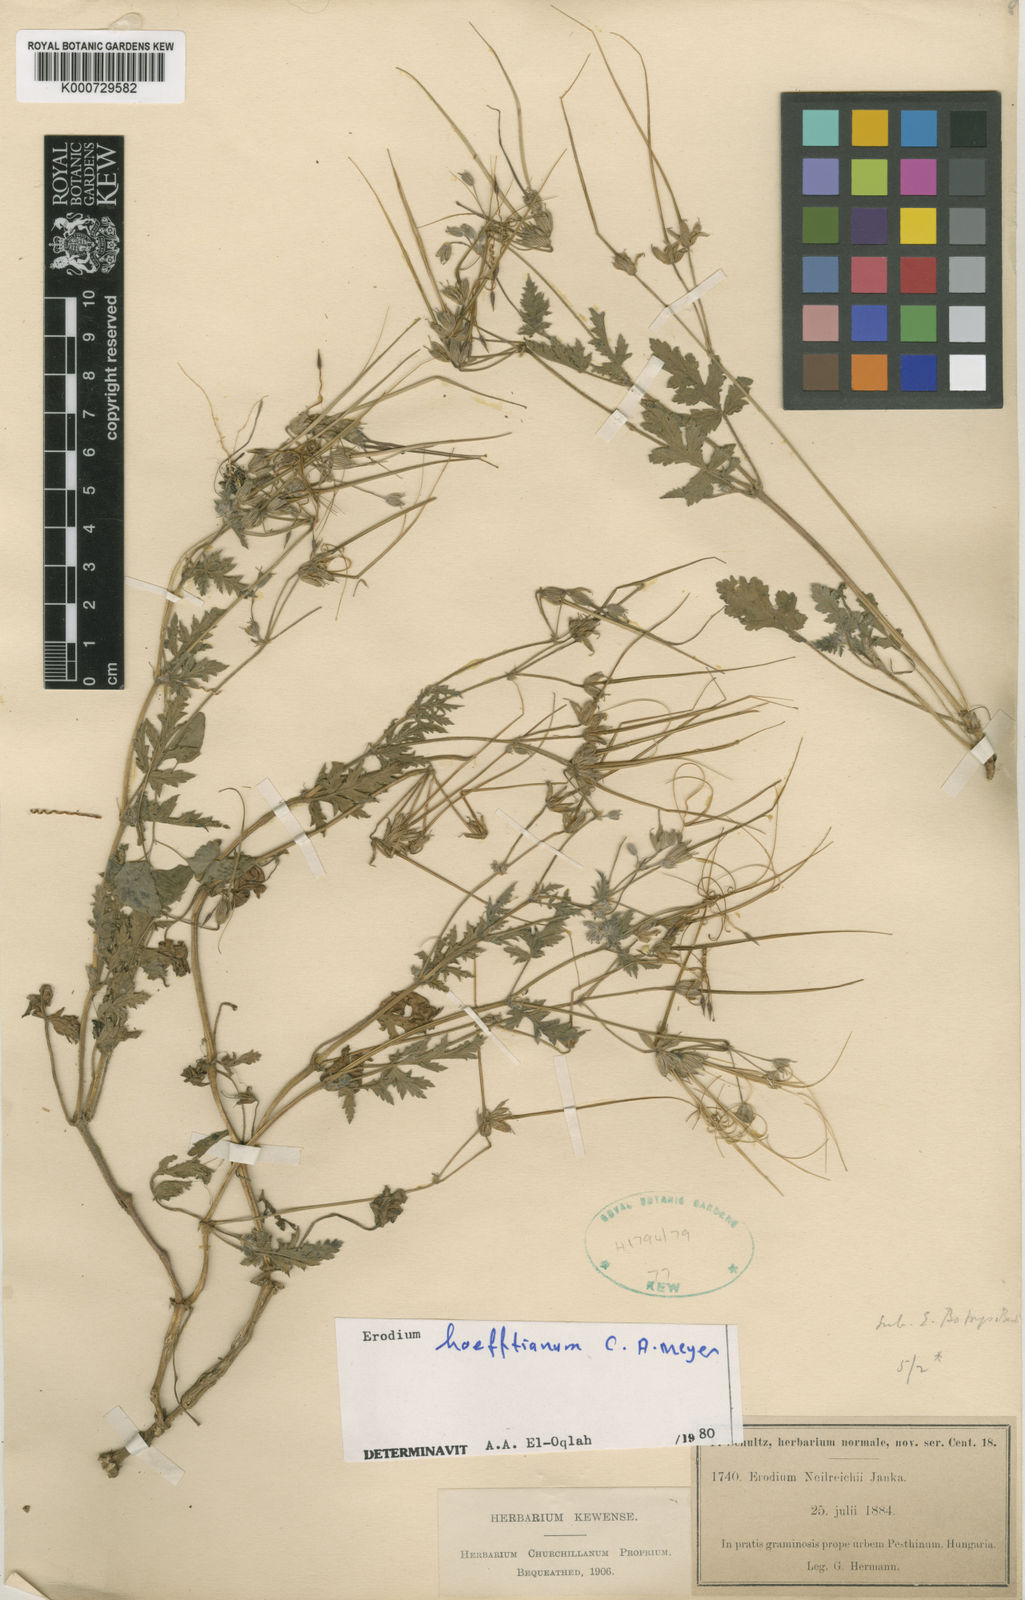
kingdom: Plantae
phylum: Tracheophyta
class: Magnoliopsida
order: Geraniales
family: Geraniaceae
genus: Erodium
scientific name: Erodium hoefftianum
